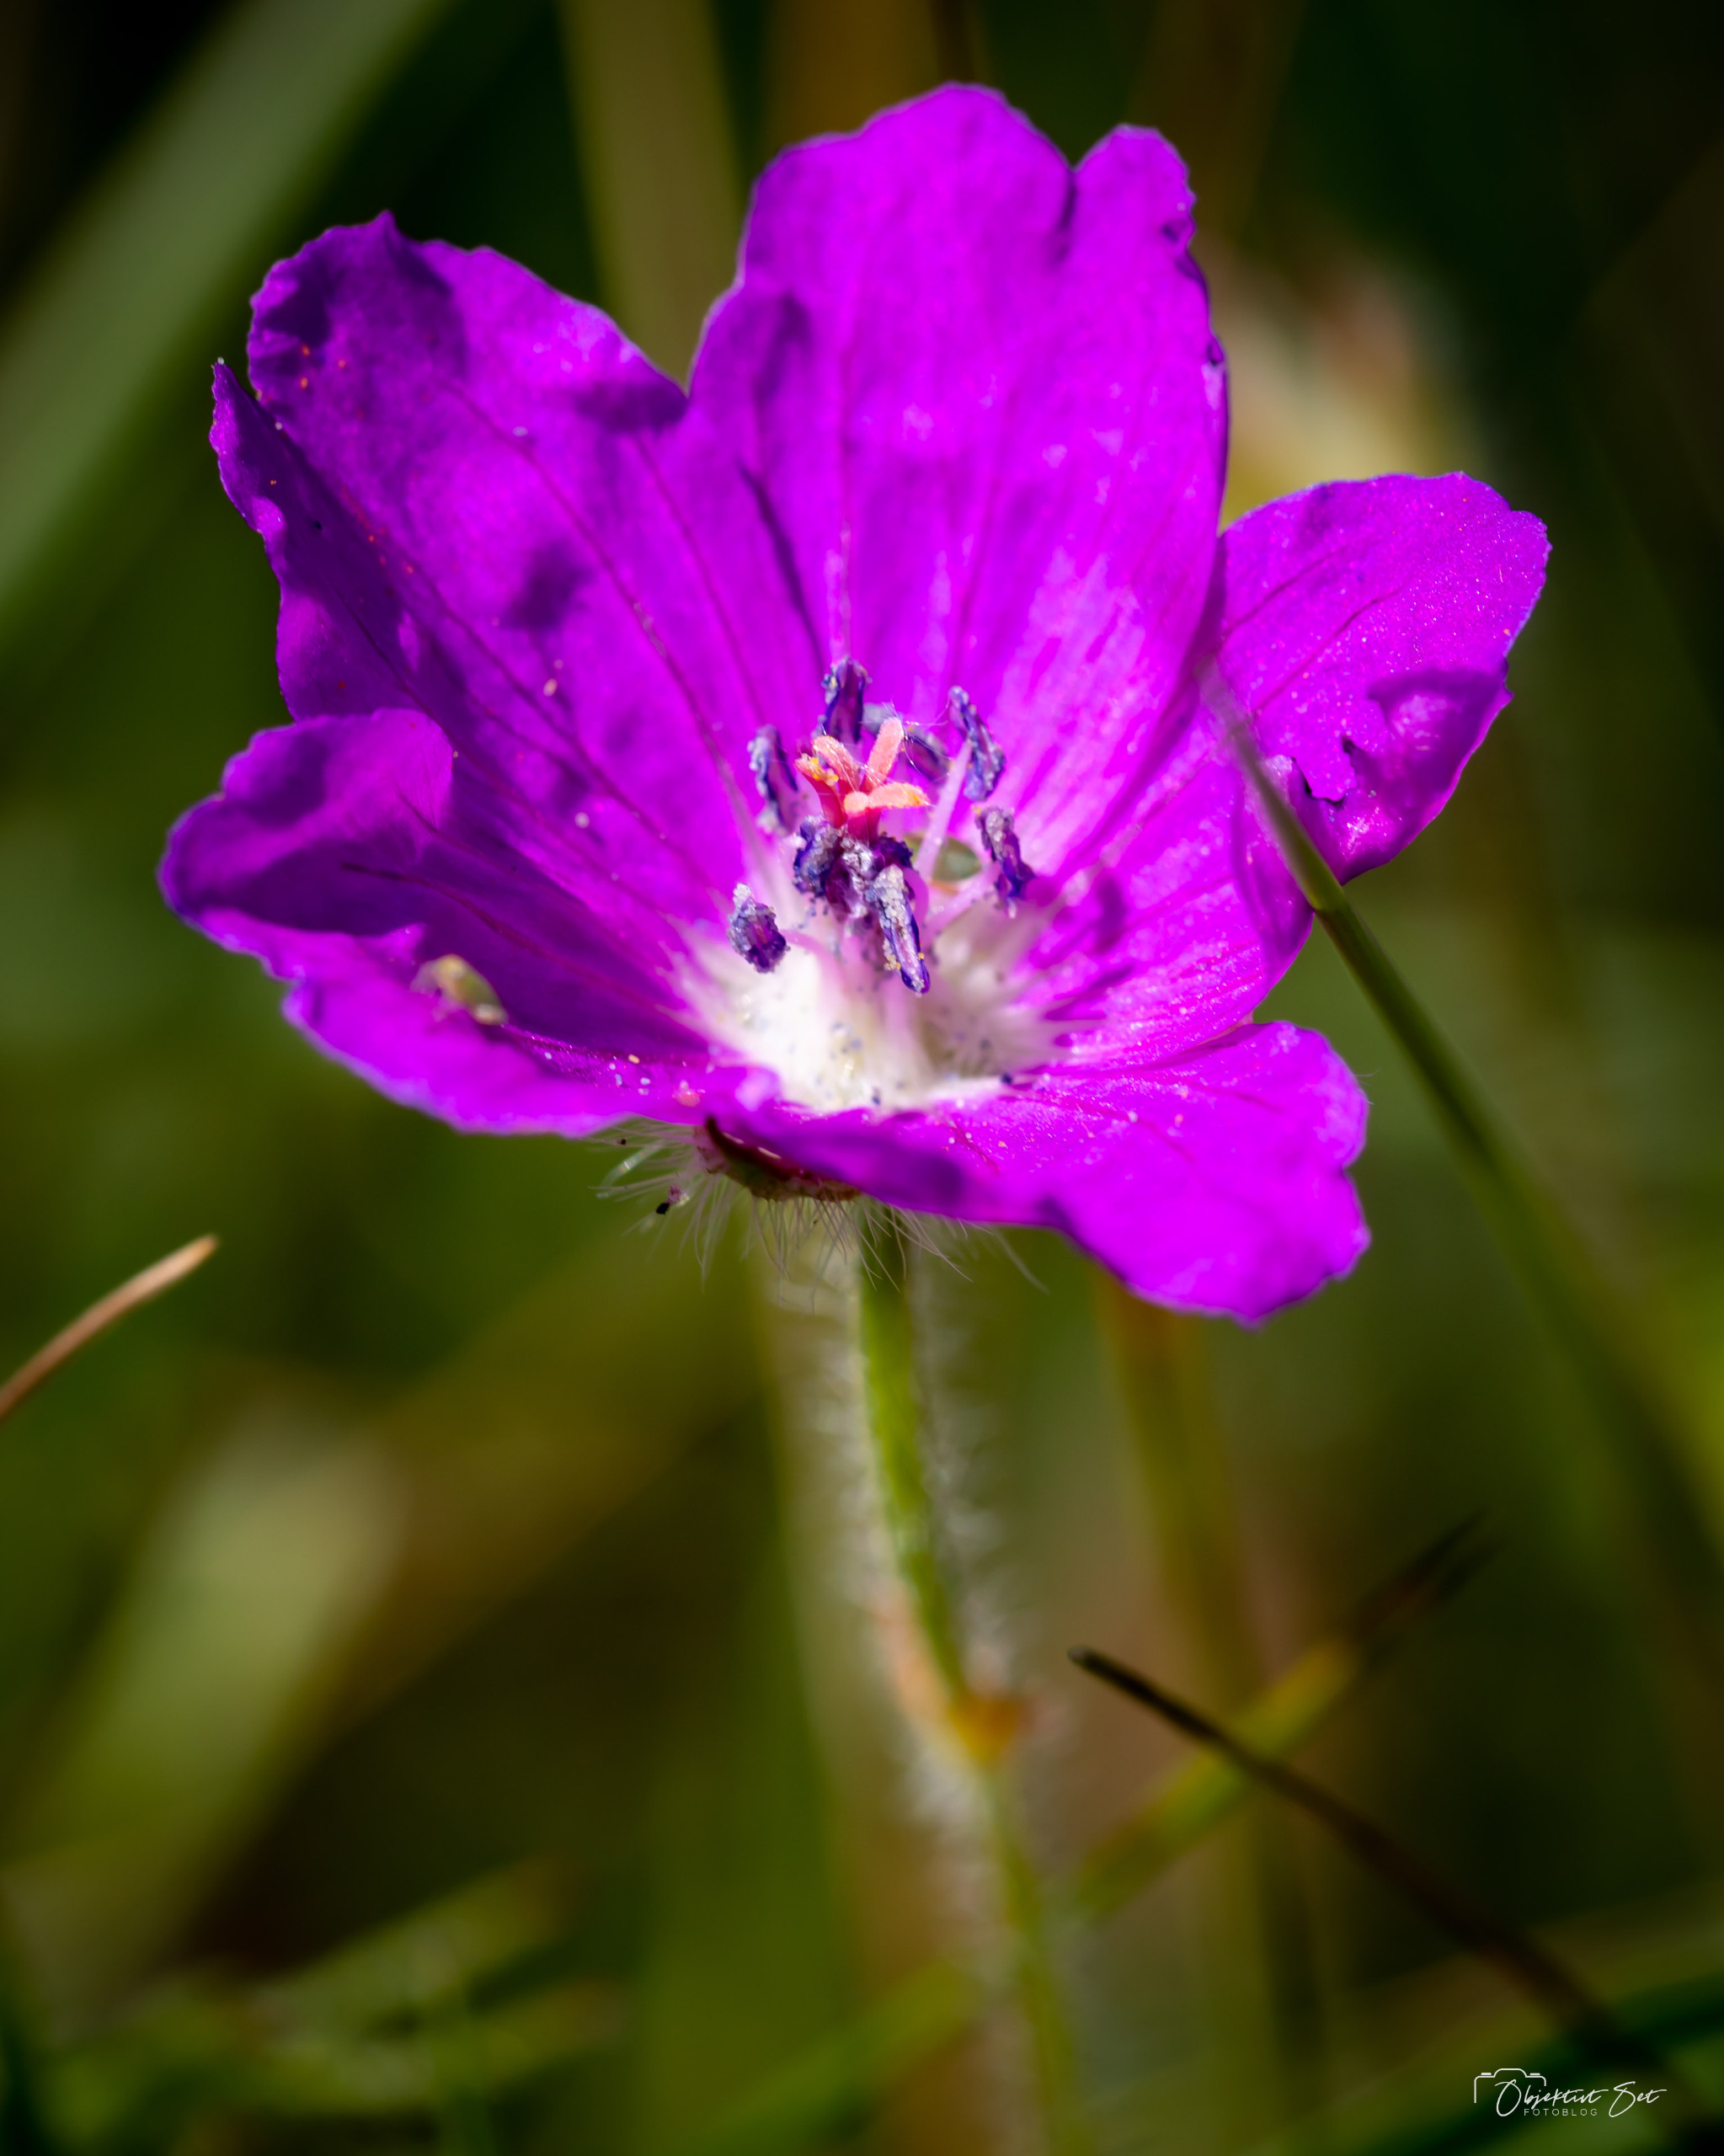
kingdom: Plantae
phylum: Tracheophyta
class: Magnoliopsida
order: Geraniales
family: Geraniaceae
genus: Geranium
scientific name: Geranium sanguineum
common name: Blodrød storkenæb
